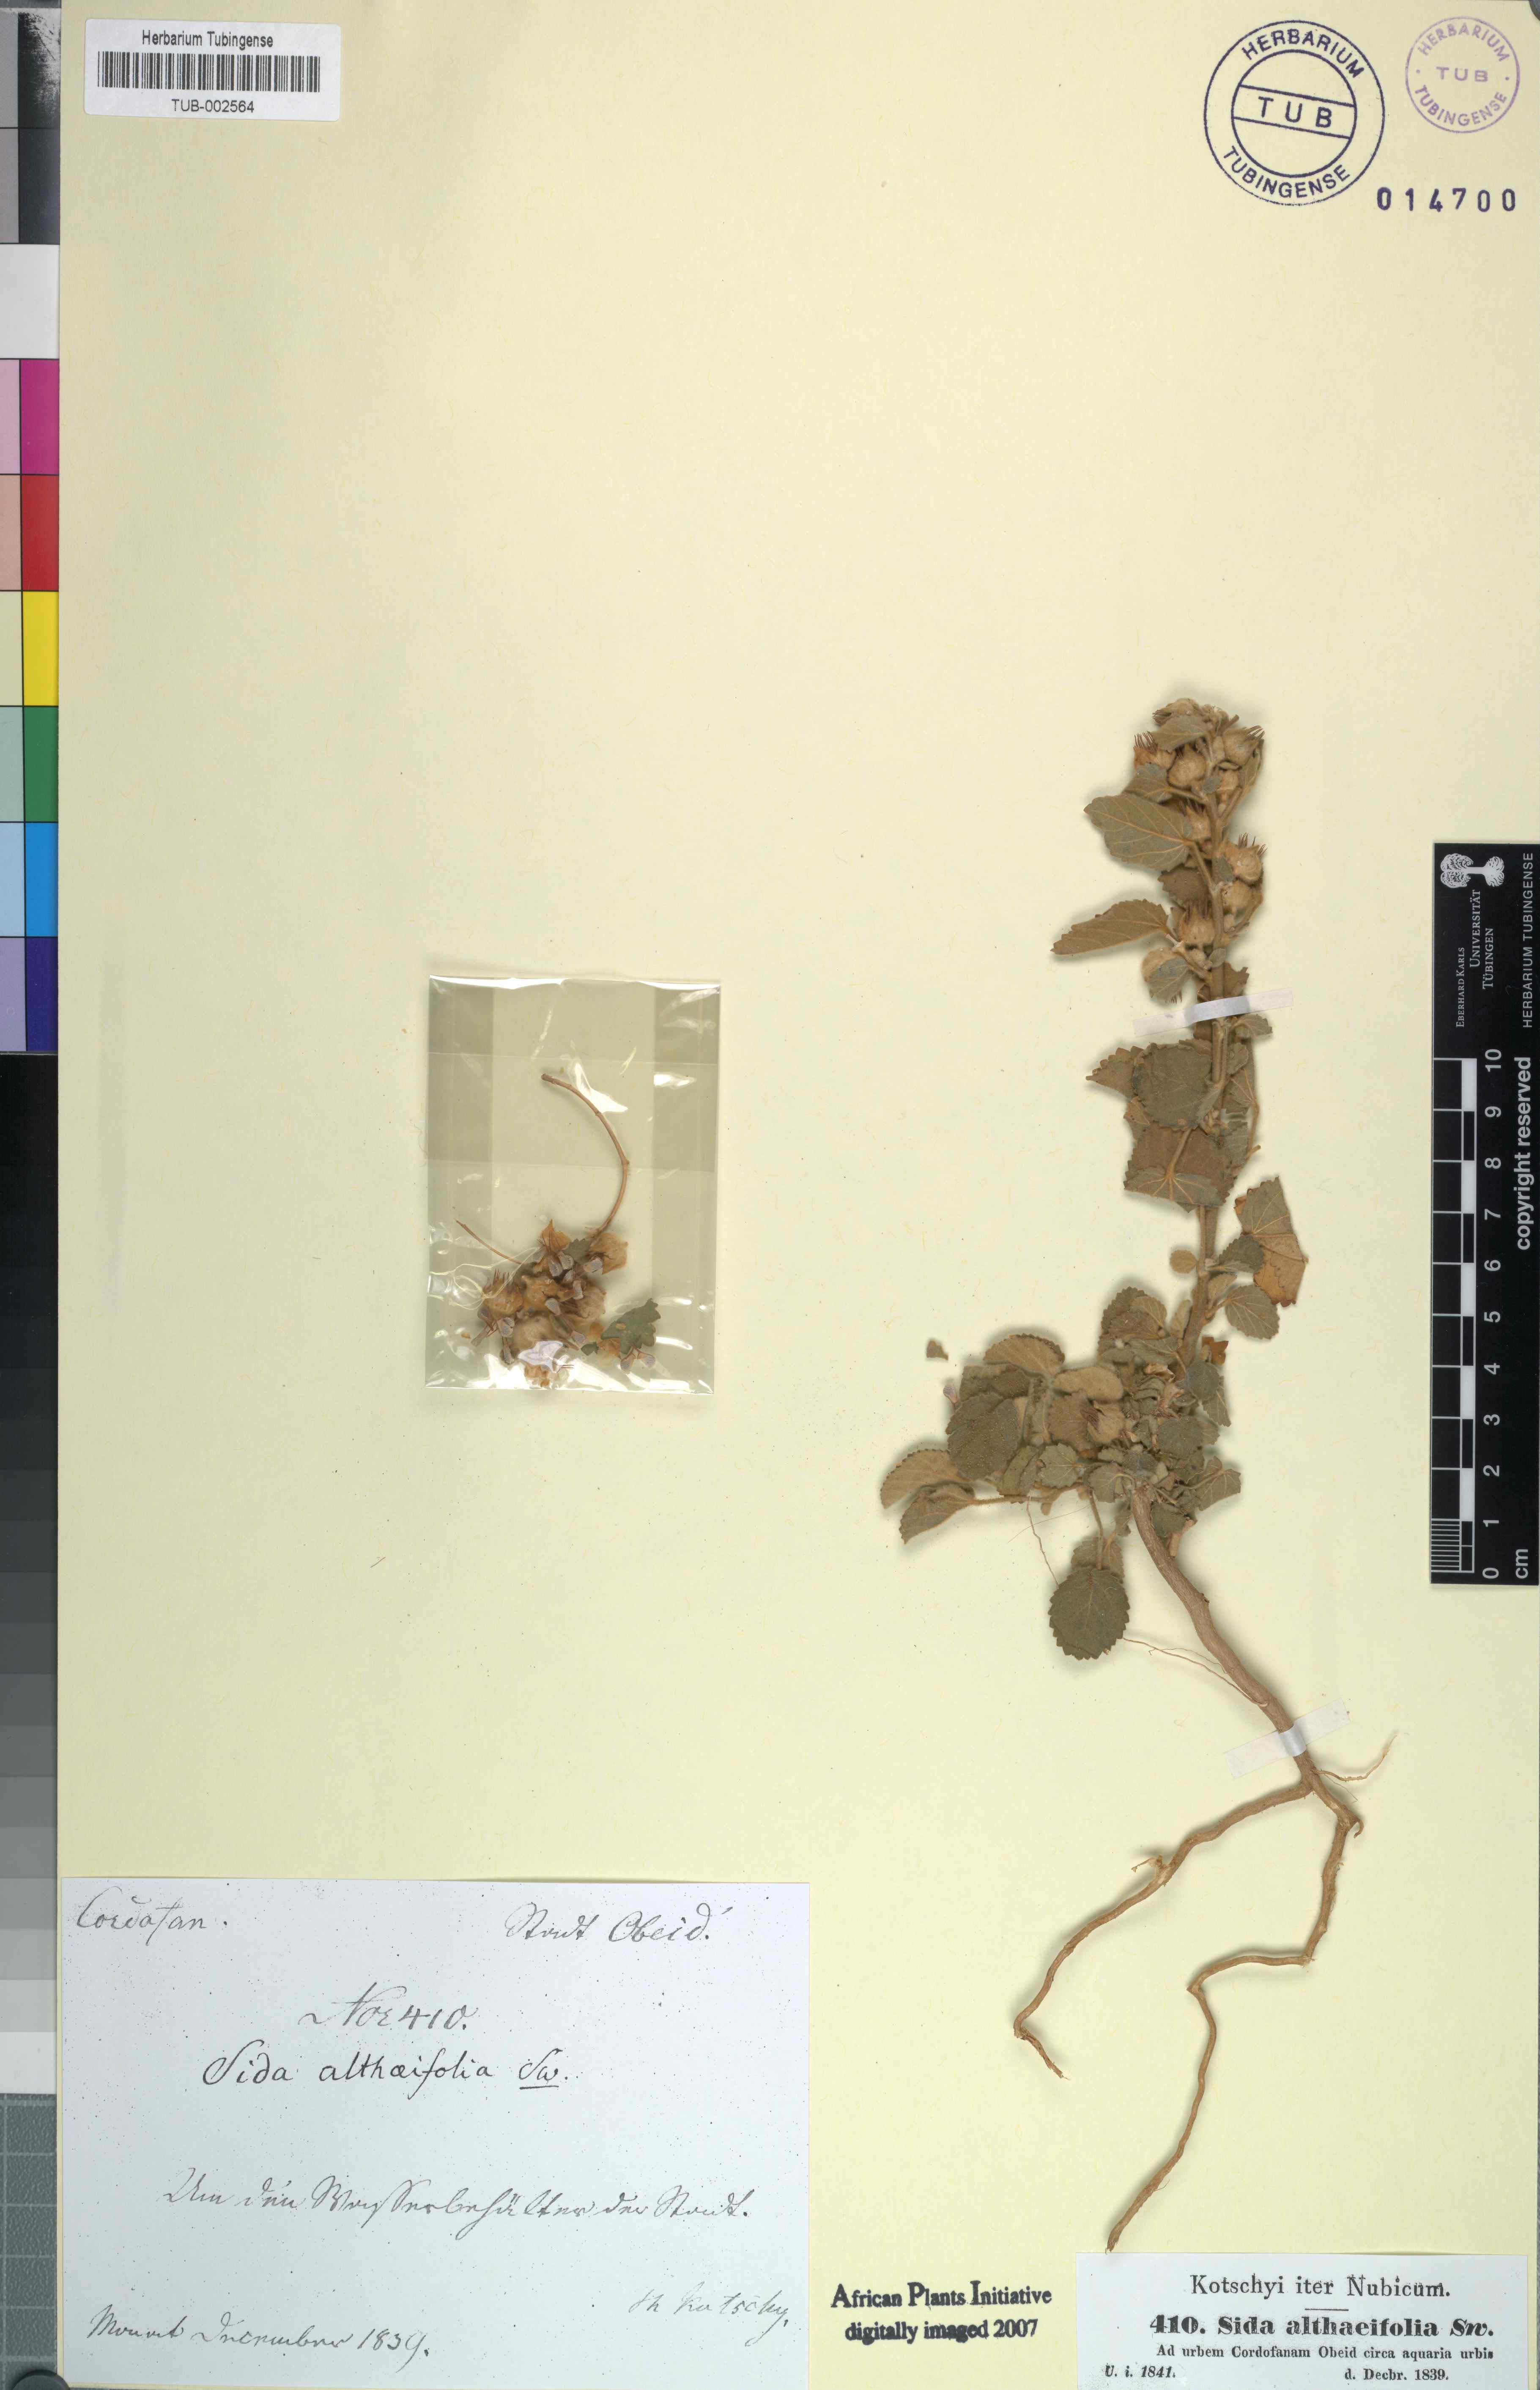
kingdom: Plantae
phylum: Tracheophyta
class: Magnoliopsida
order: Malvales
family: Malvaceae
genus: Sida
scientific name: Sida cordifolia
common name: Ilima
